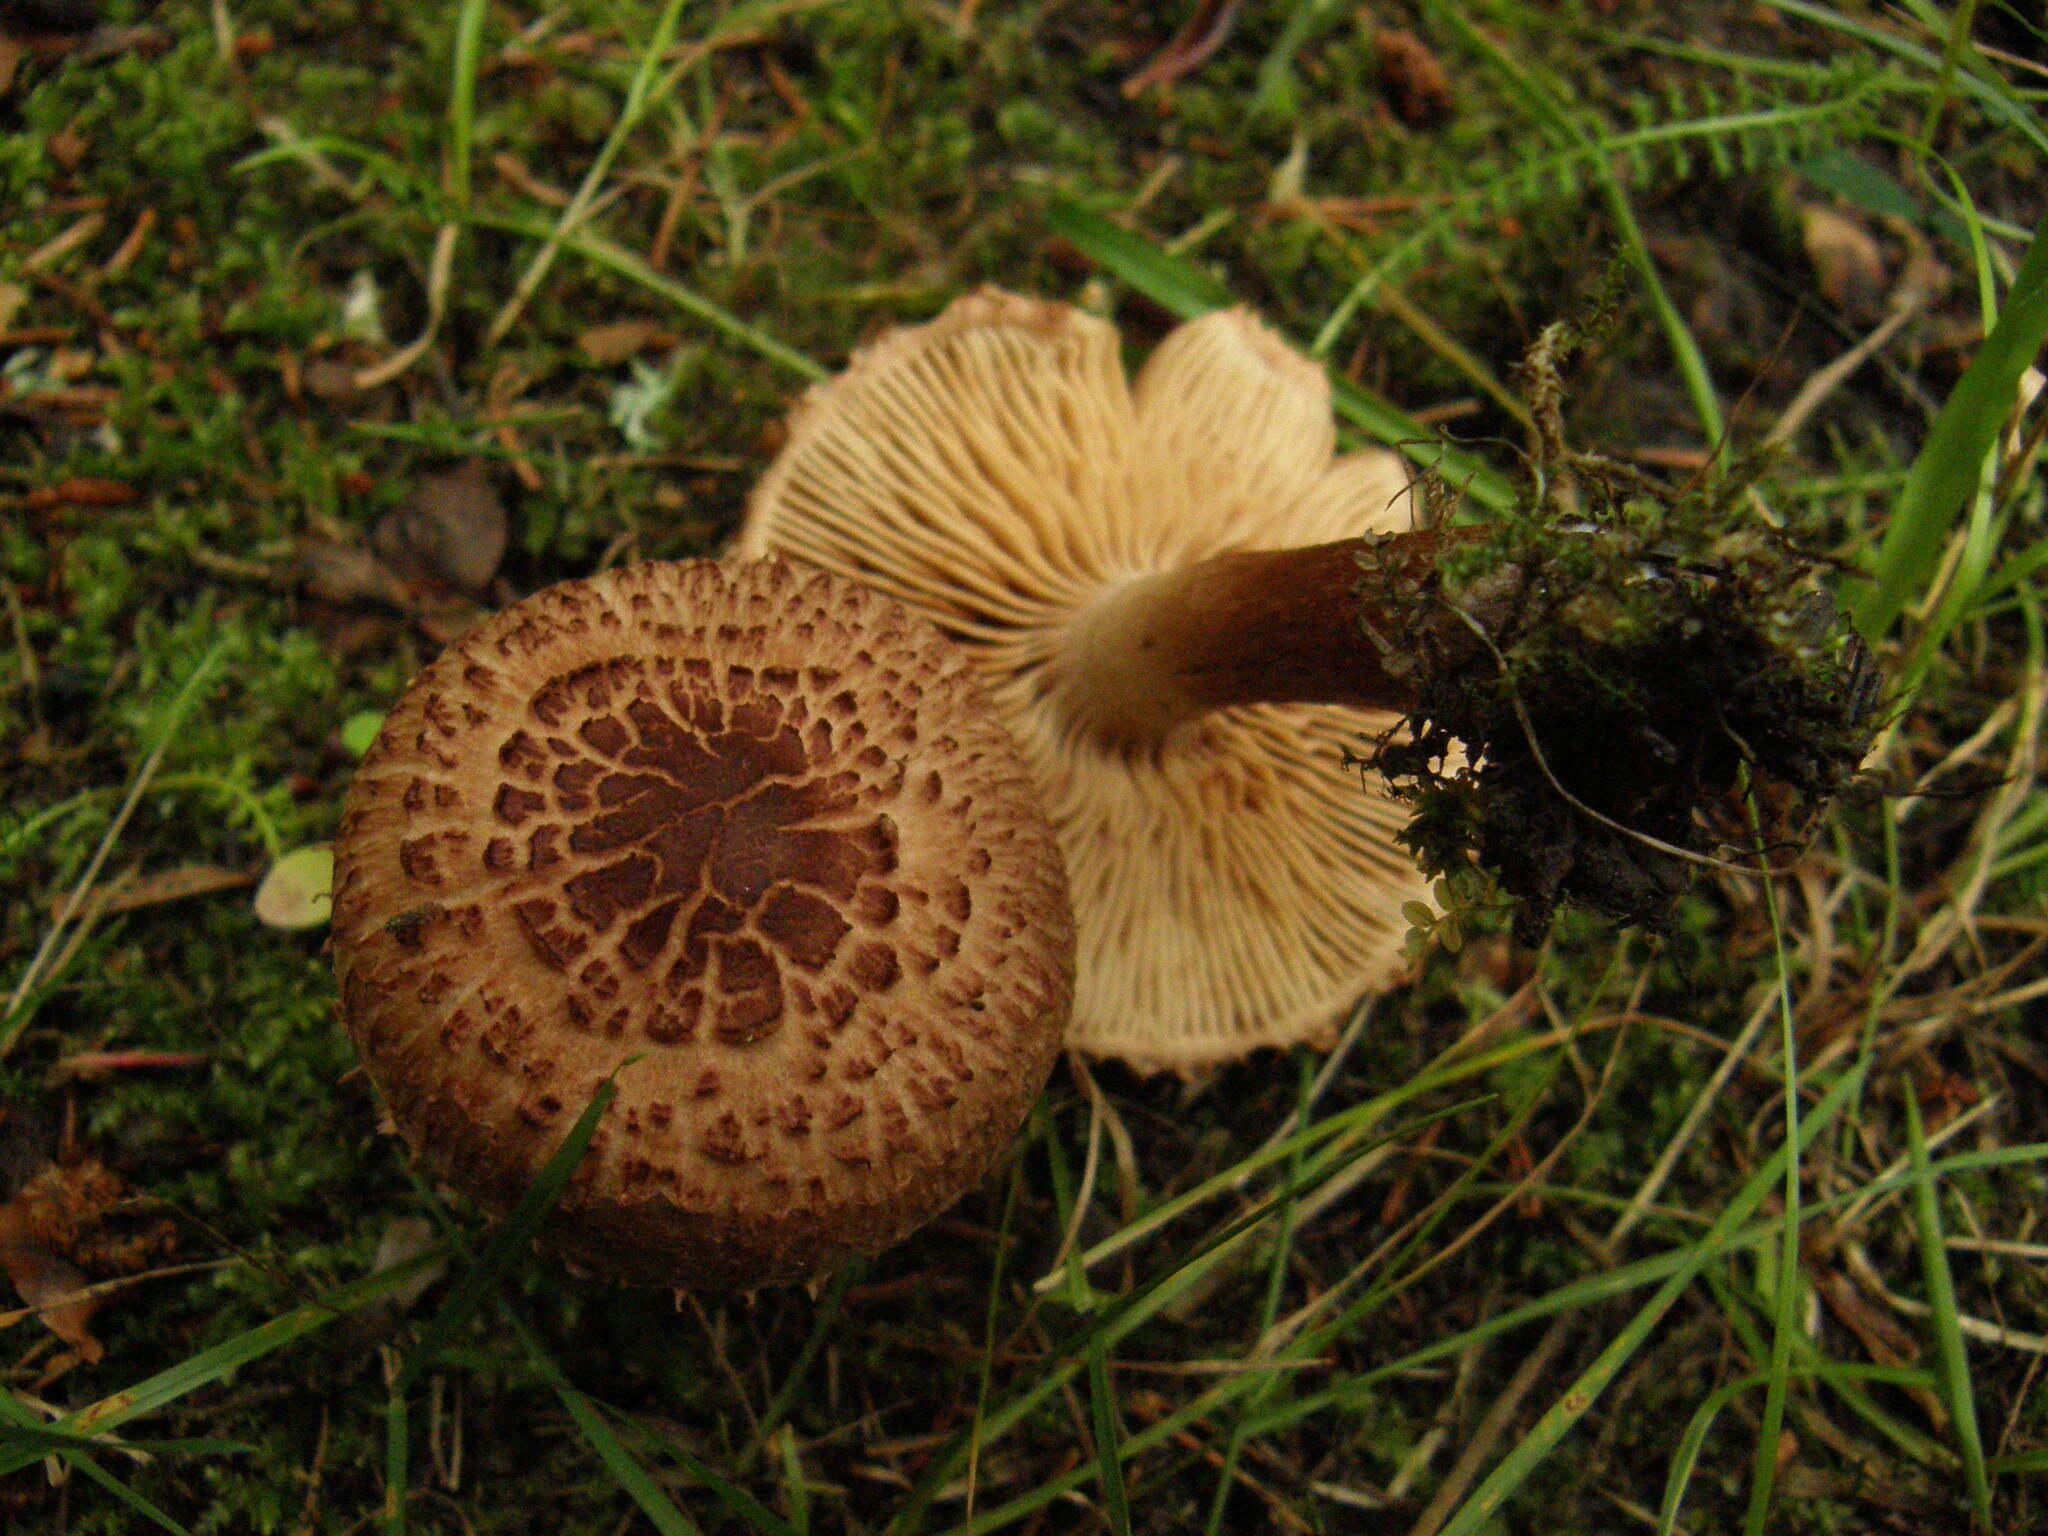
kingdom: Fungi
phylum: Basidiomycota
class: Agaricomycetes
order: Agaricales
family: Tricholomataceae
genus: Tricholoma
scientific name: Tricholoma vaccinum
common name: Scaly knight
